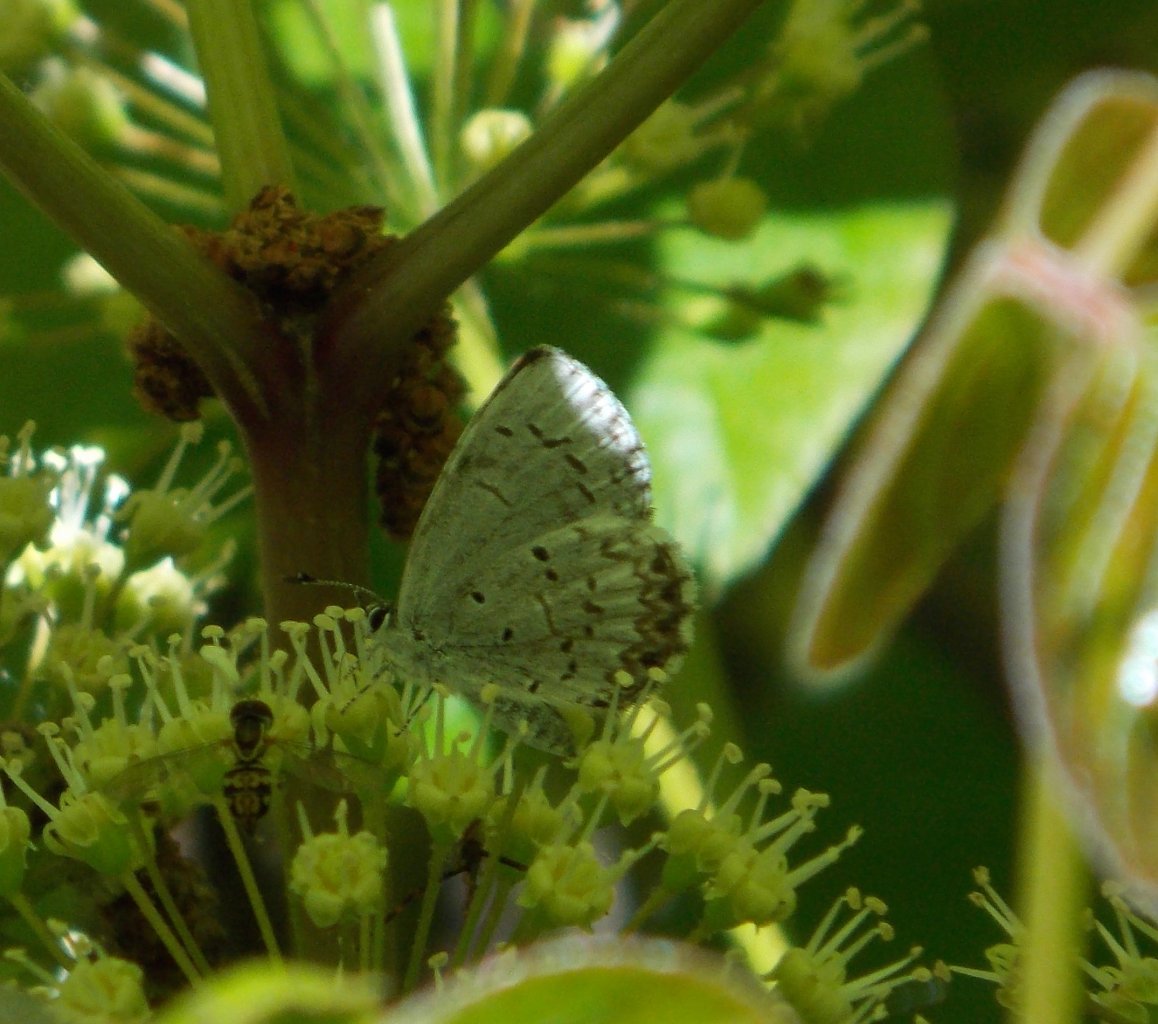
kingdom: Animalia
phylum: Arthropoda
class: Insecta
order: Lepidoptera
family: Lycaenidae
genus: Celastrina
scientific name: Celastrina lucia
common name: Northern Spring Azure
